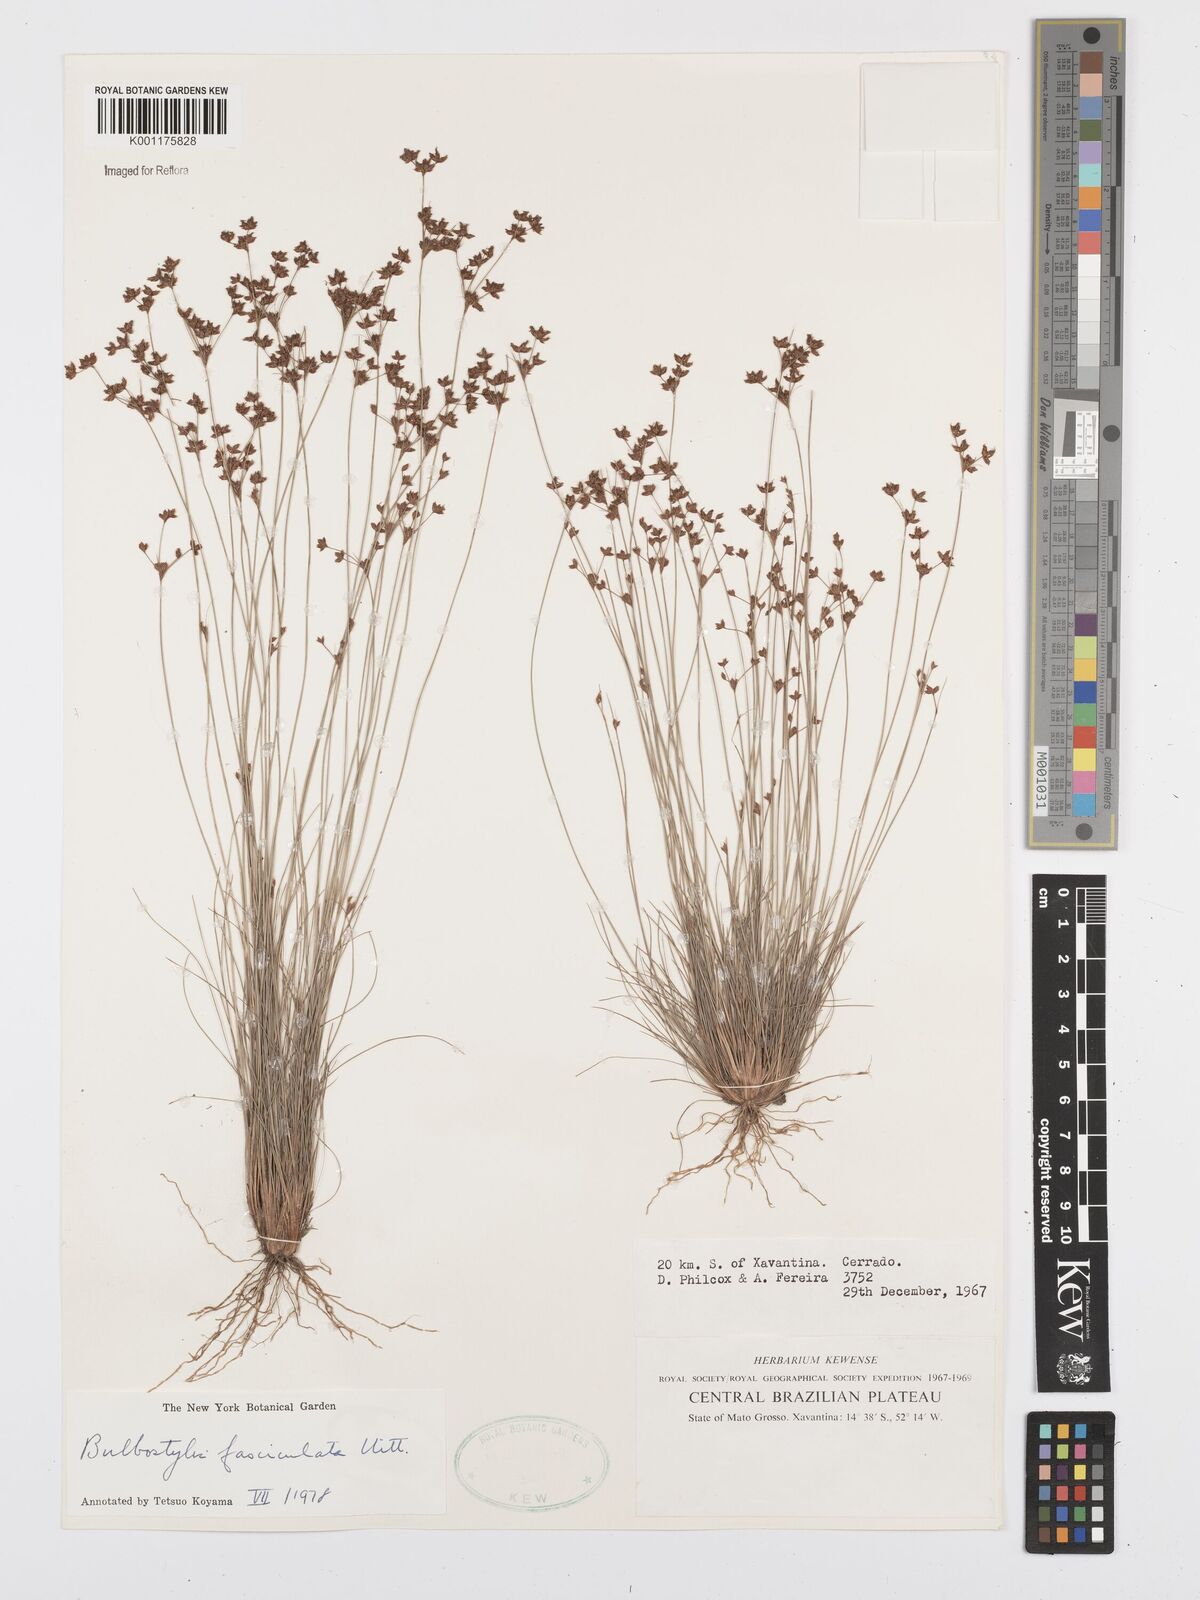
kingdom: Plantae
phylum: Tracheophyta
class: Liliopsida
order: Poales
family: Cyperaceae
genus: Bulbostylis
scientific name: Bulbostylis fasciculata
